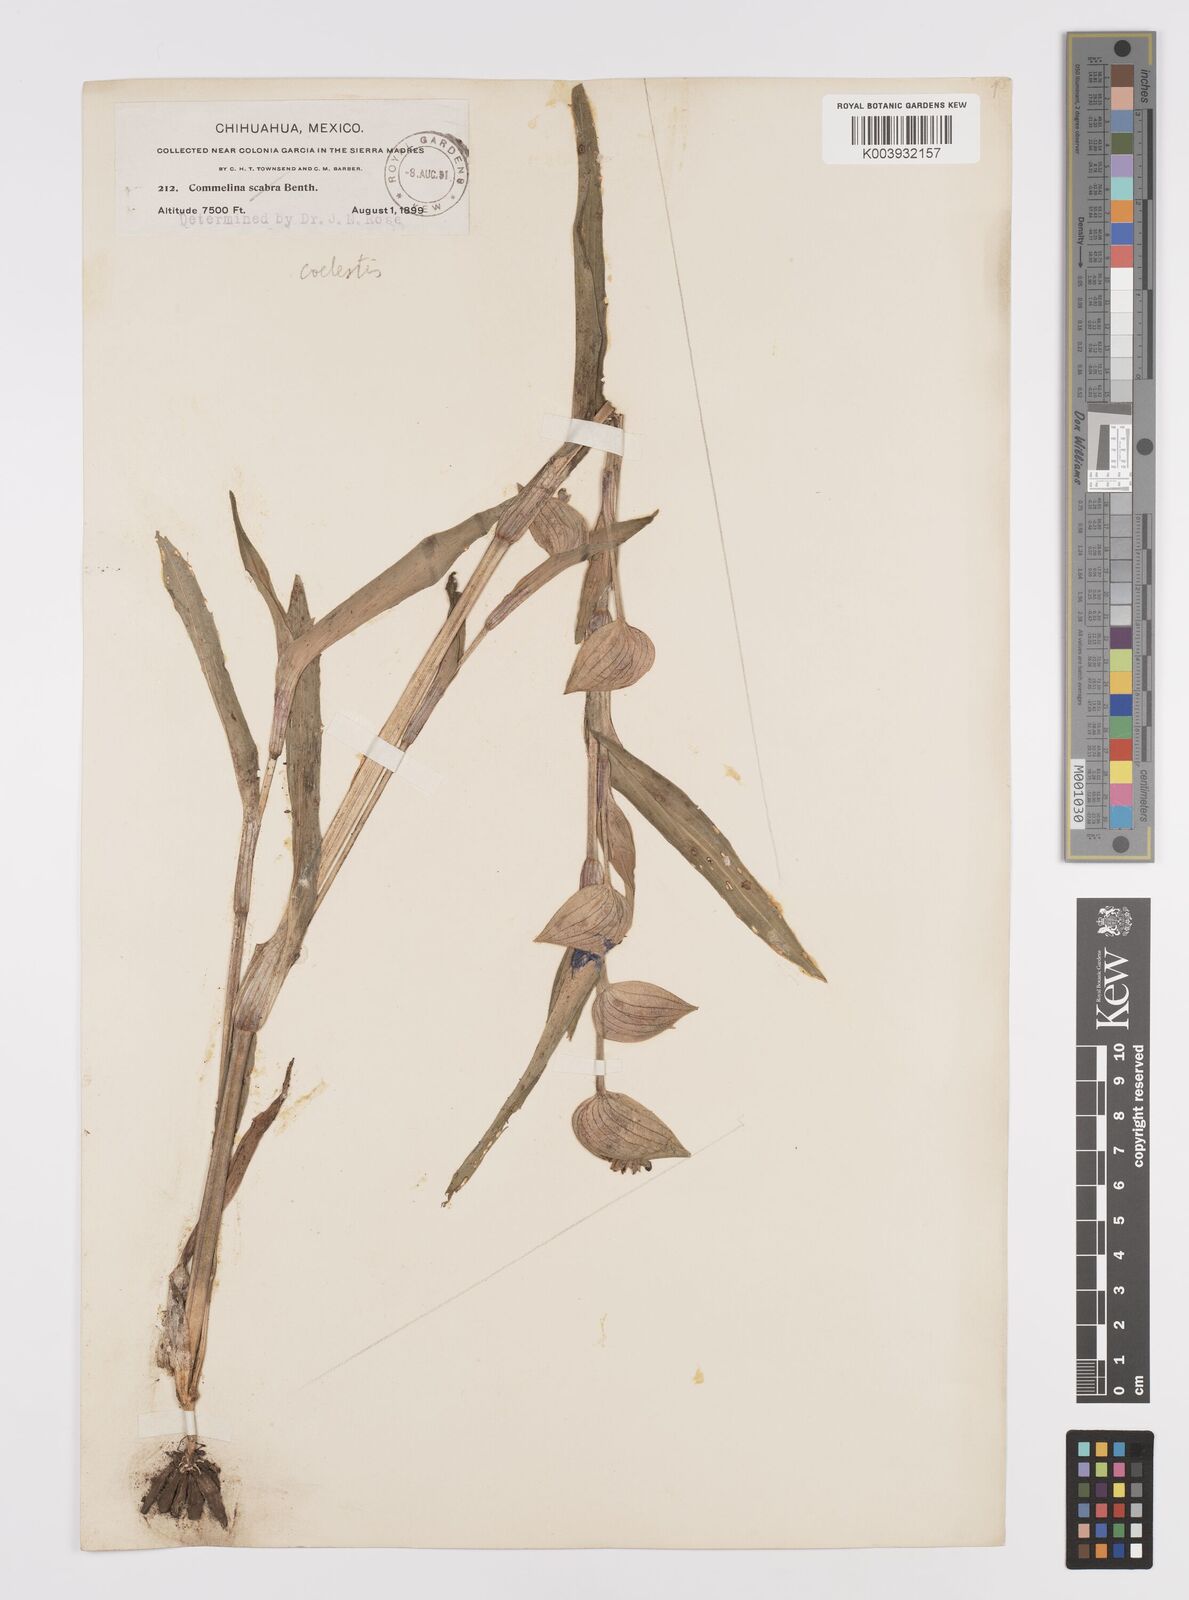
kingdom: Plantae
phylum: Tracheophyta
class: Liliopsida
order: Commelinales
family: Commelinaceae
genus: Commelina
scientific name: Commelina standleyi
